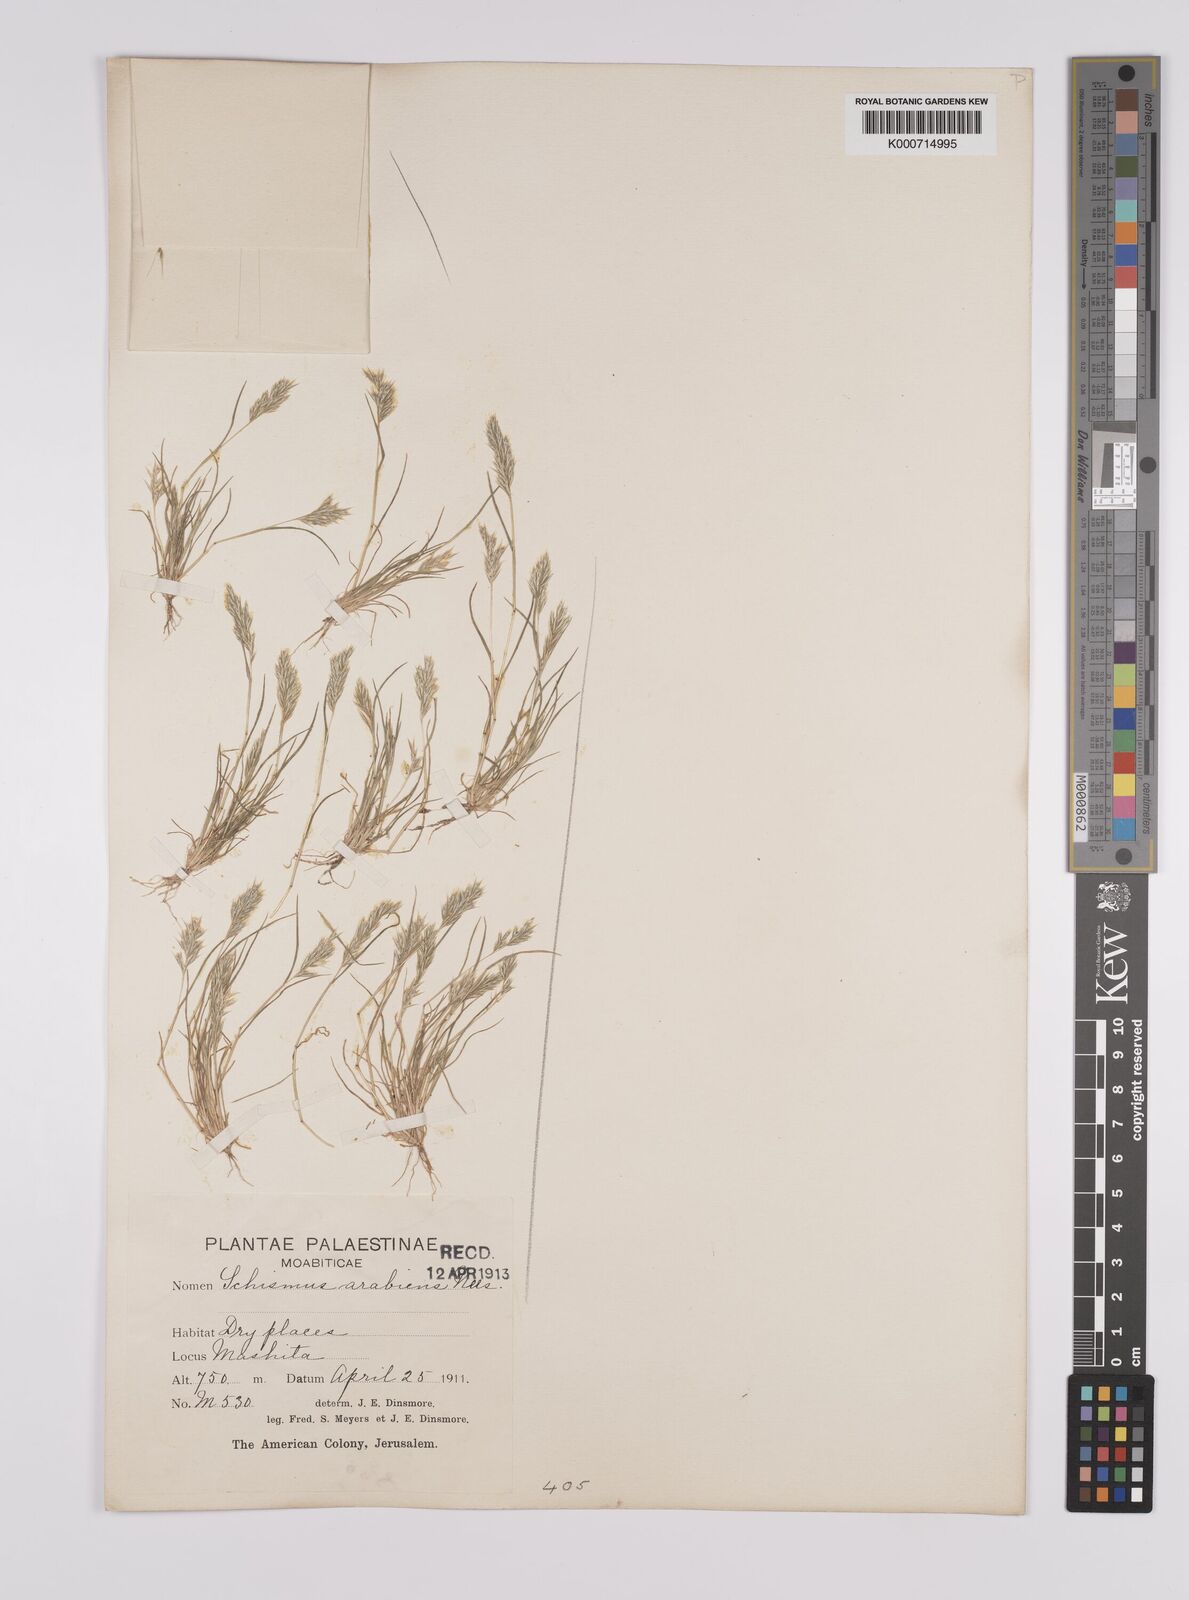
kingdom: Plantae
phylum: Tracheophyta
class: Liliopsida
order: Poales
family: Poaceae
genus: Schismus
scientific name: Schismus arabicus
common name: Arabian schismus
